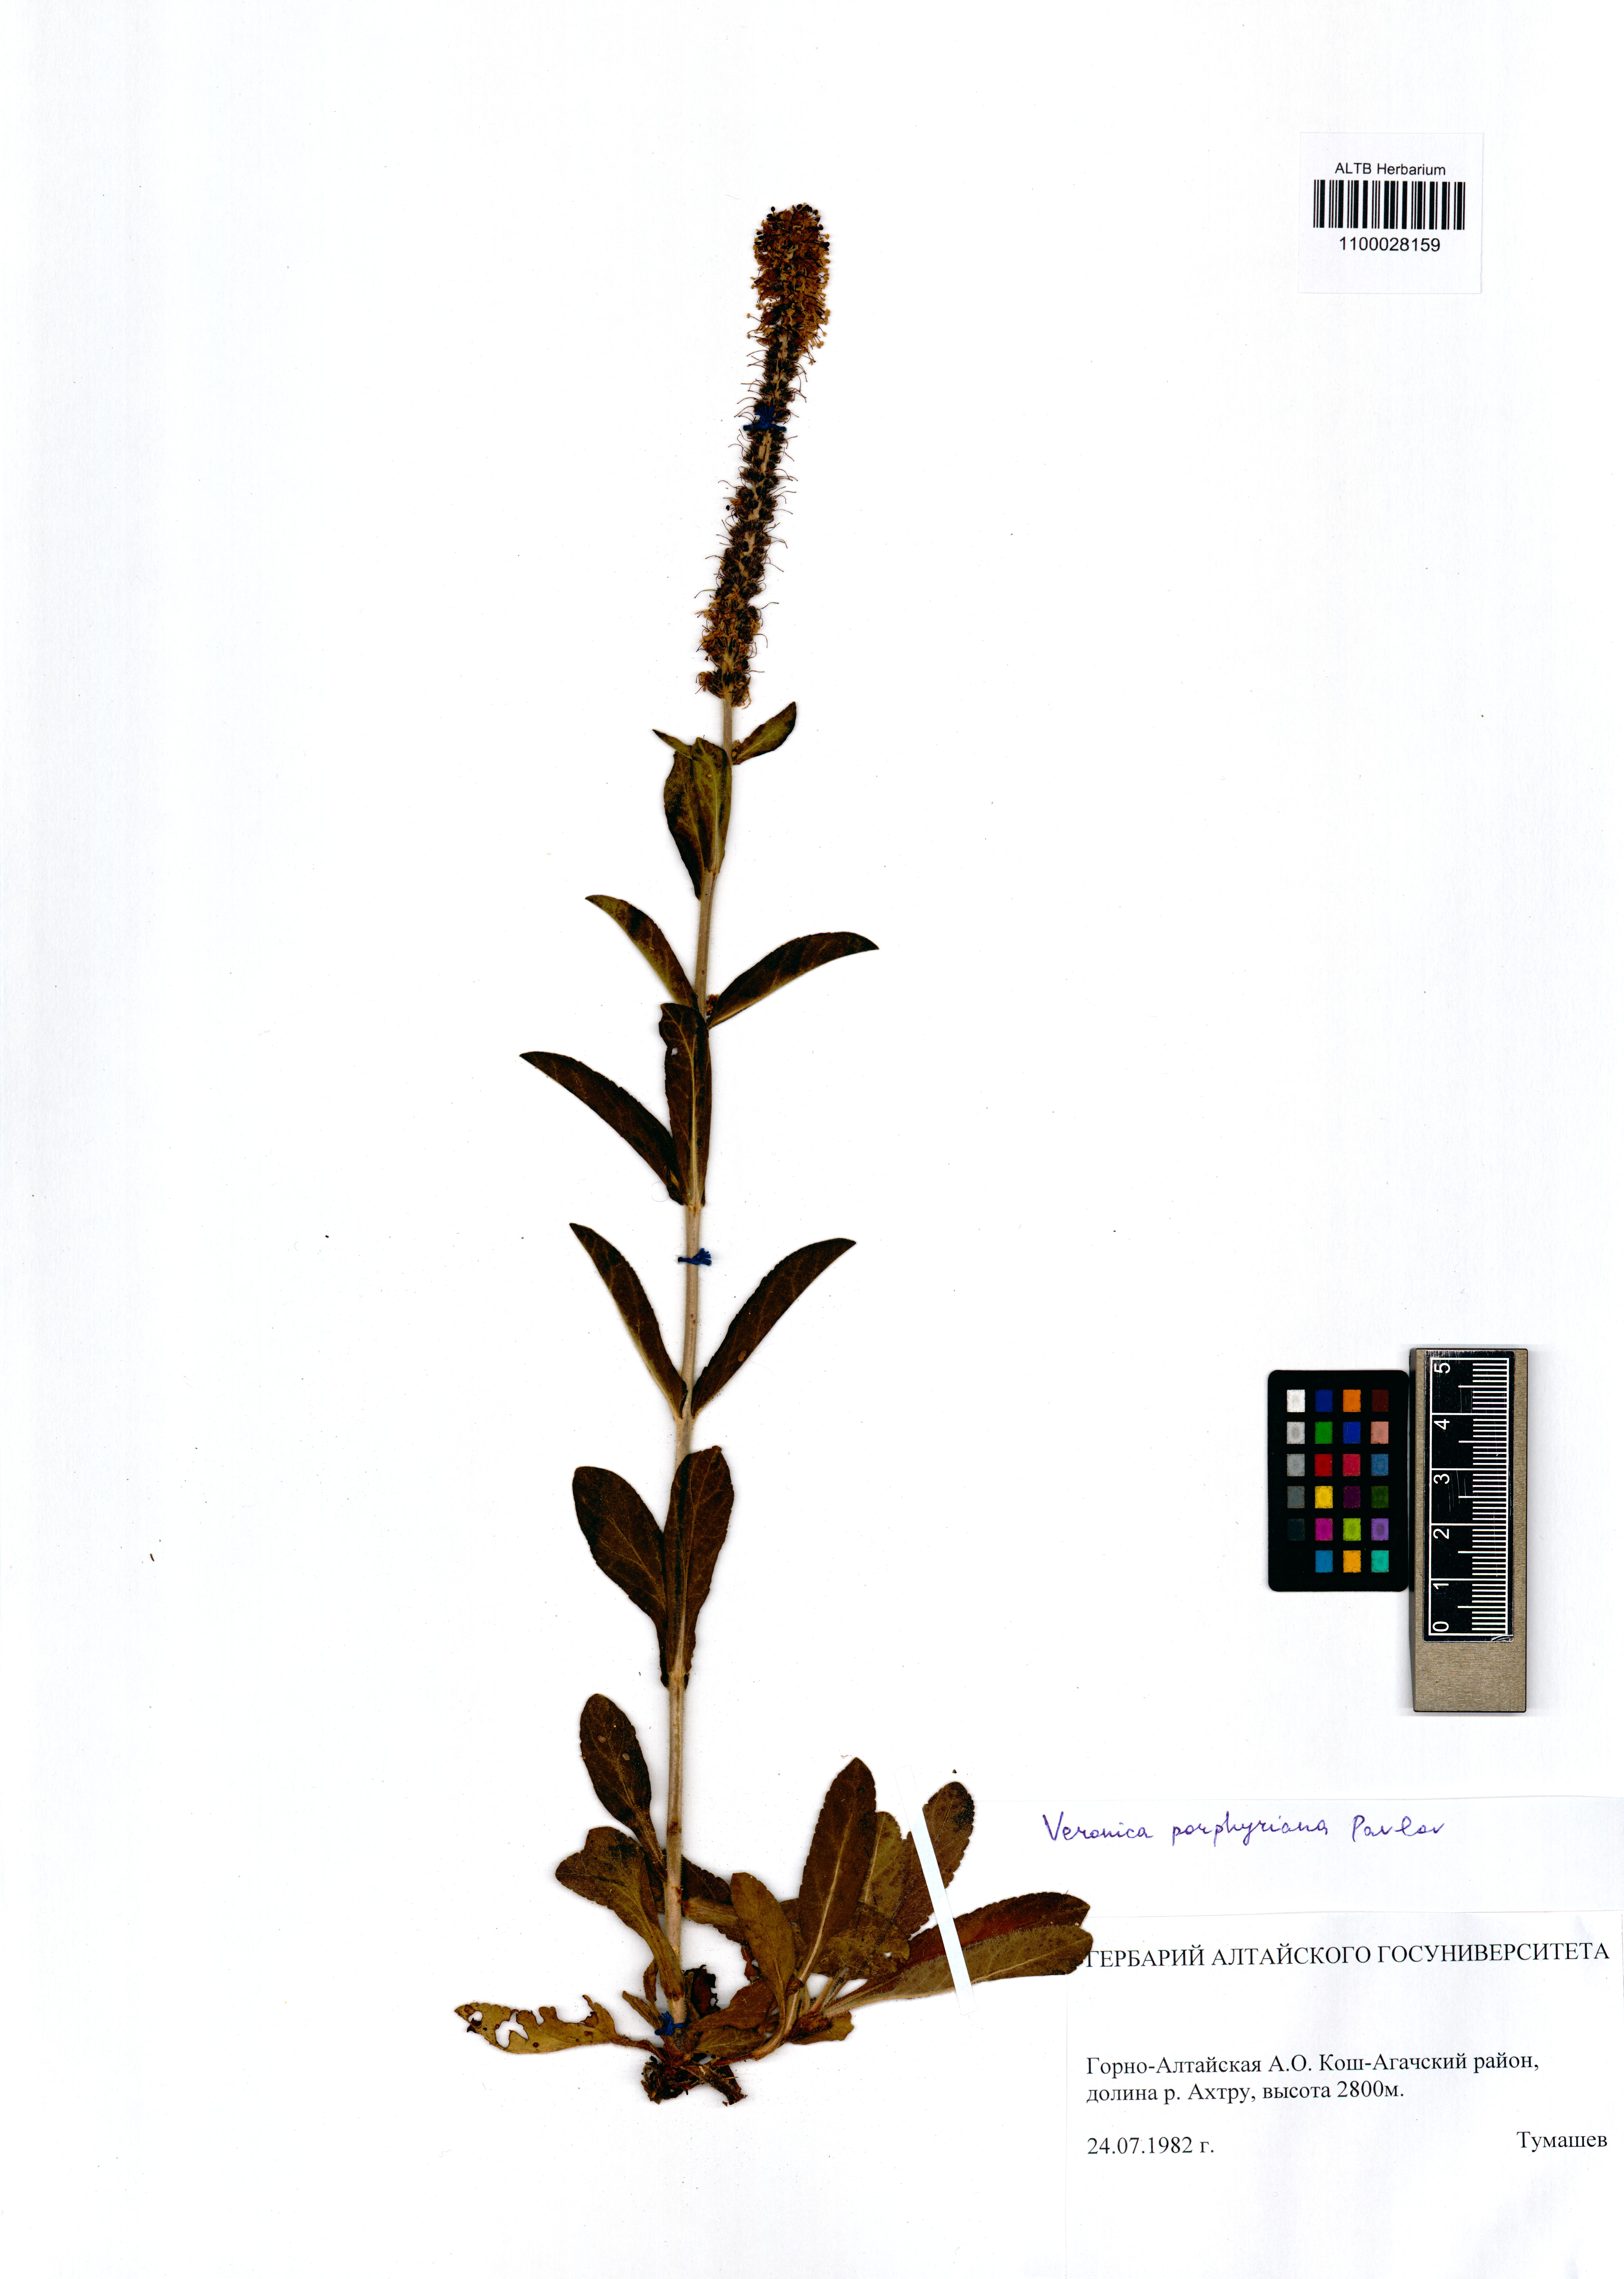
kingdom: Plantae
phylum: Tracheophyta
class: Magnoliopsida
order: Lamiales
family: Plantaginaceae
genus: Veronica
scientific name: Veronica porphyriana
